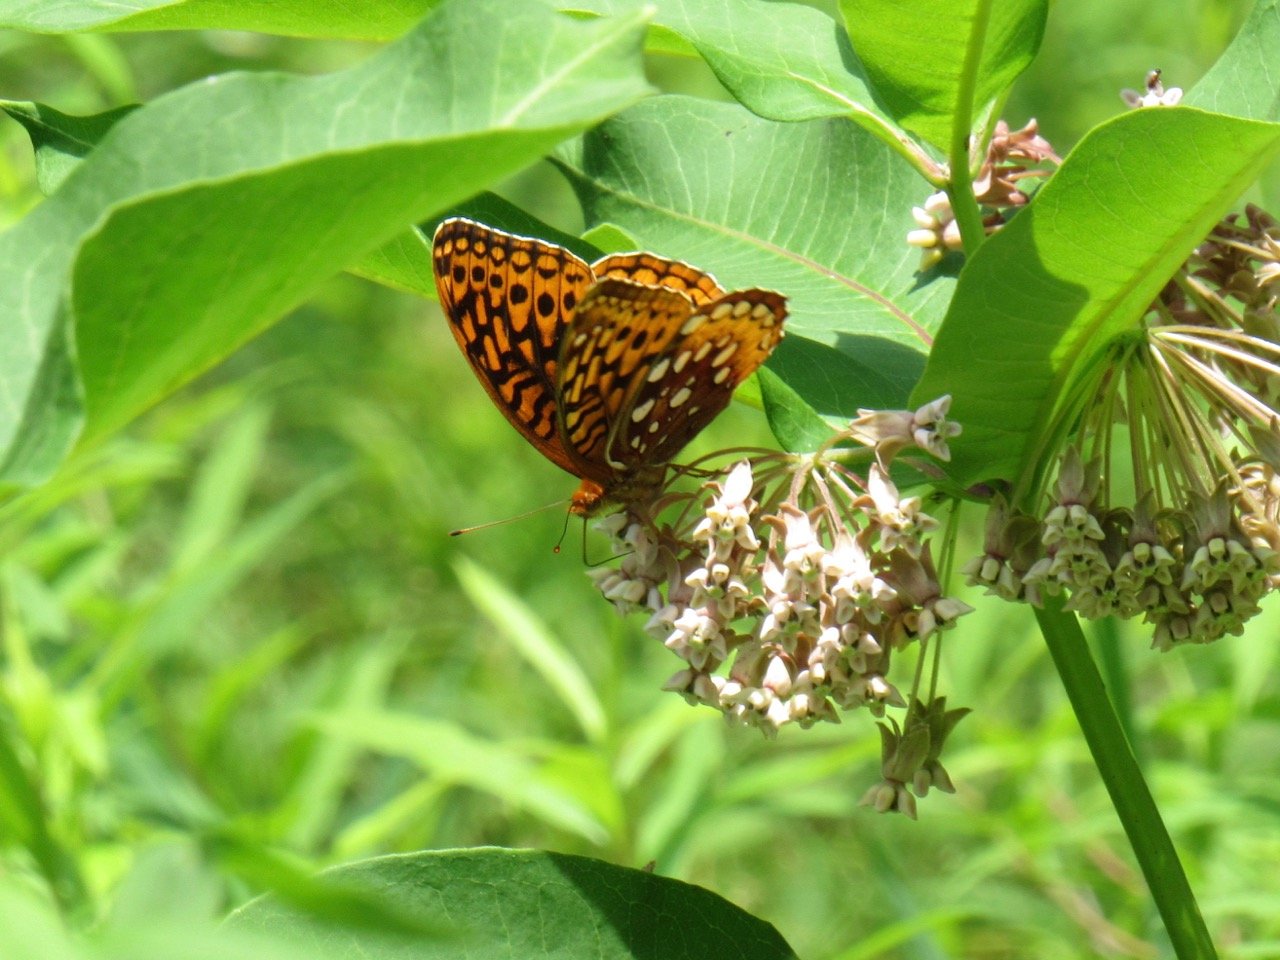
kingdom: Animalia
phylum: Arthropoda
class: Insecta
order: Lepidoptera
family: Nymphalidae
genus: Speyeria
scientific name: Speyeria cybele
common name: Great Spangled Fritillary
